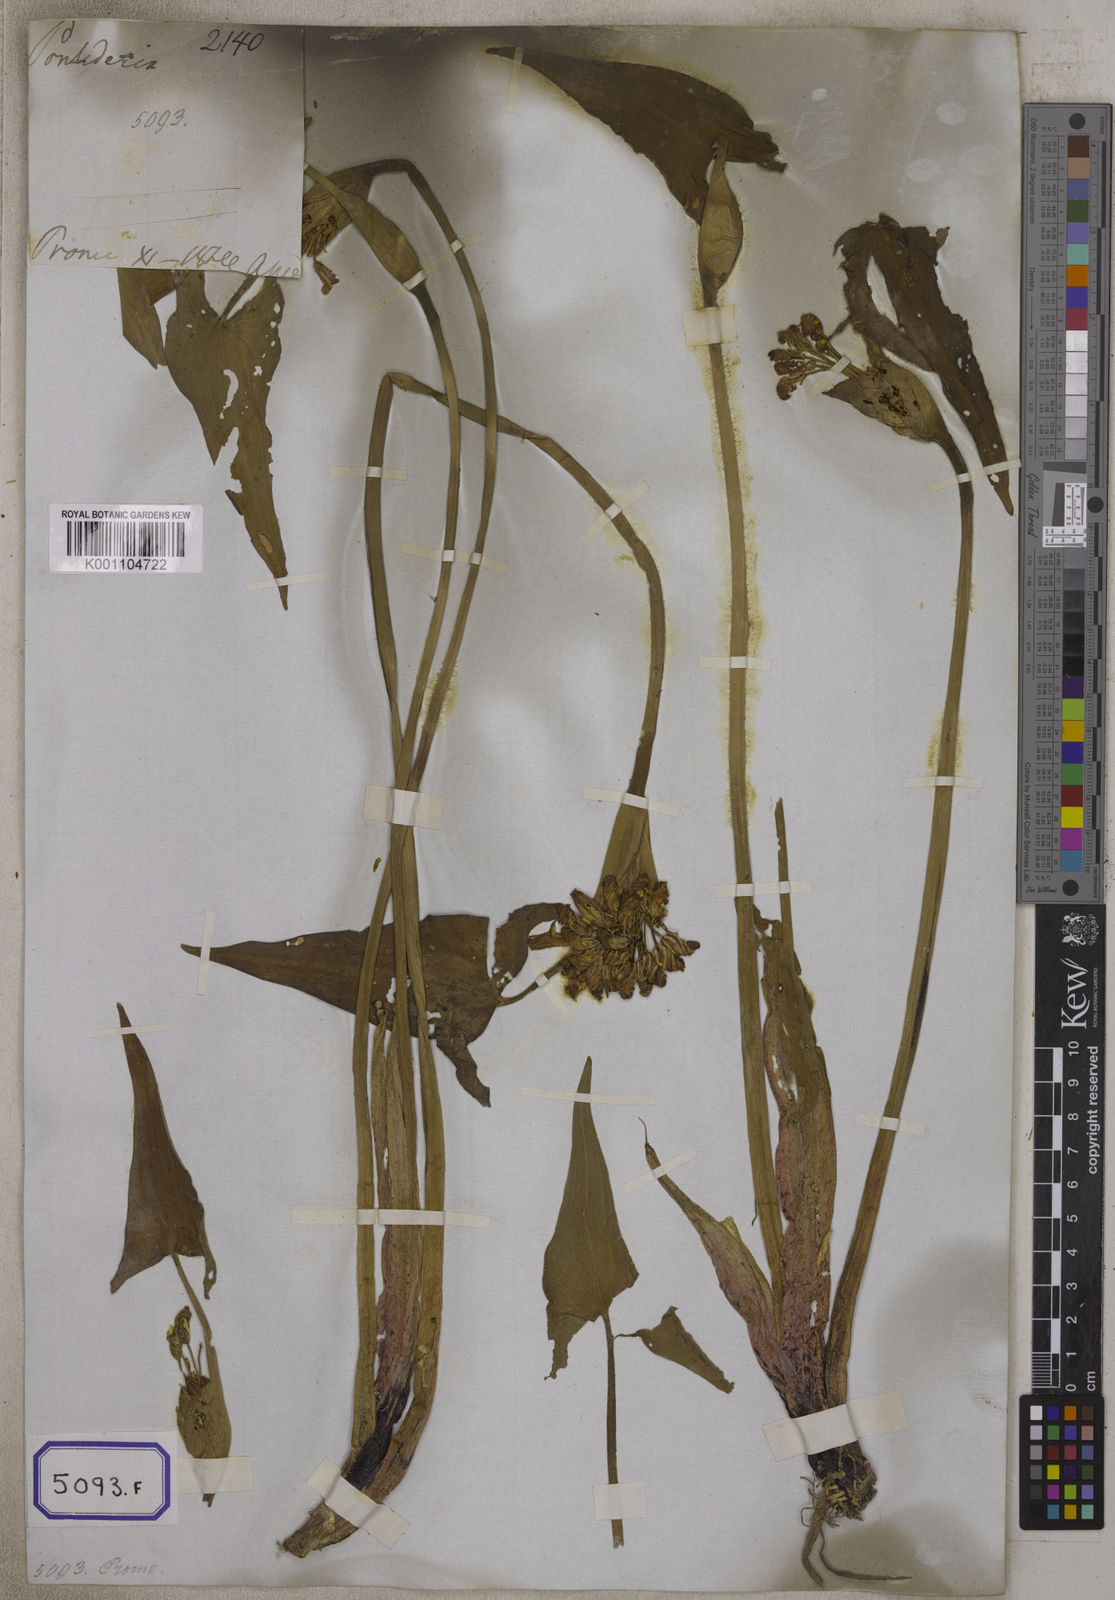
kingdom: Plantae
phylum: Tracheophyta
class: Liliopsida
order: Commelinales
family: Pontederiaceae
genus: Pontederia
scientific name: Pontederia hastata
